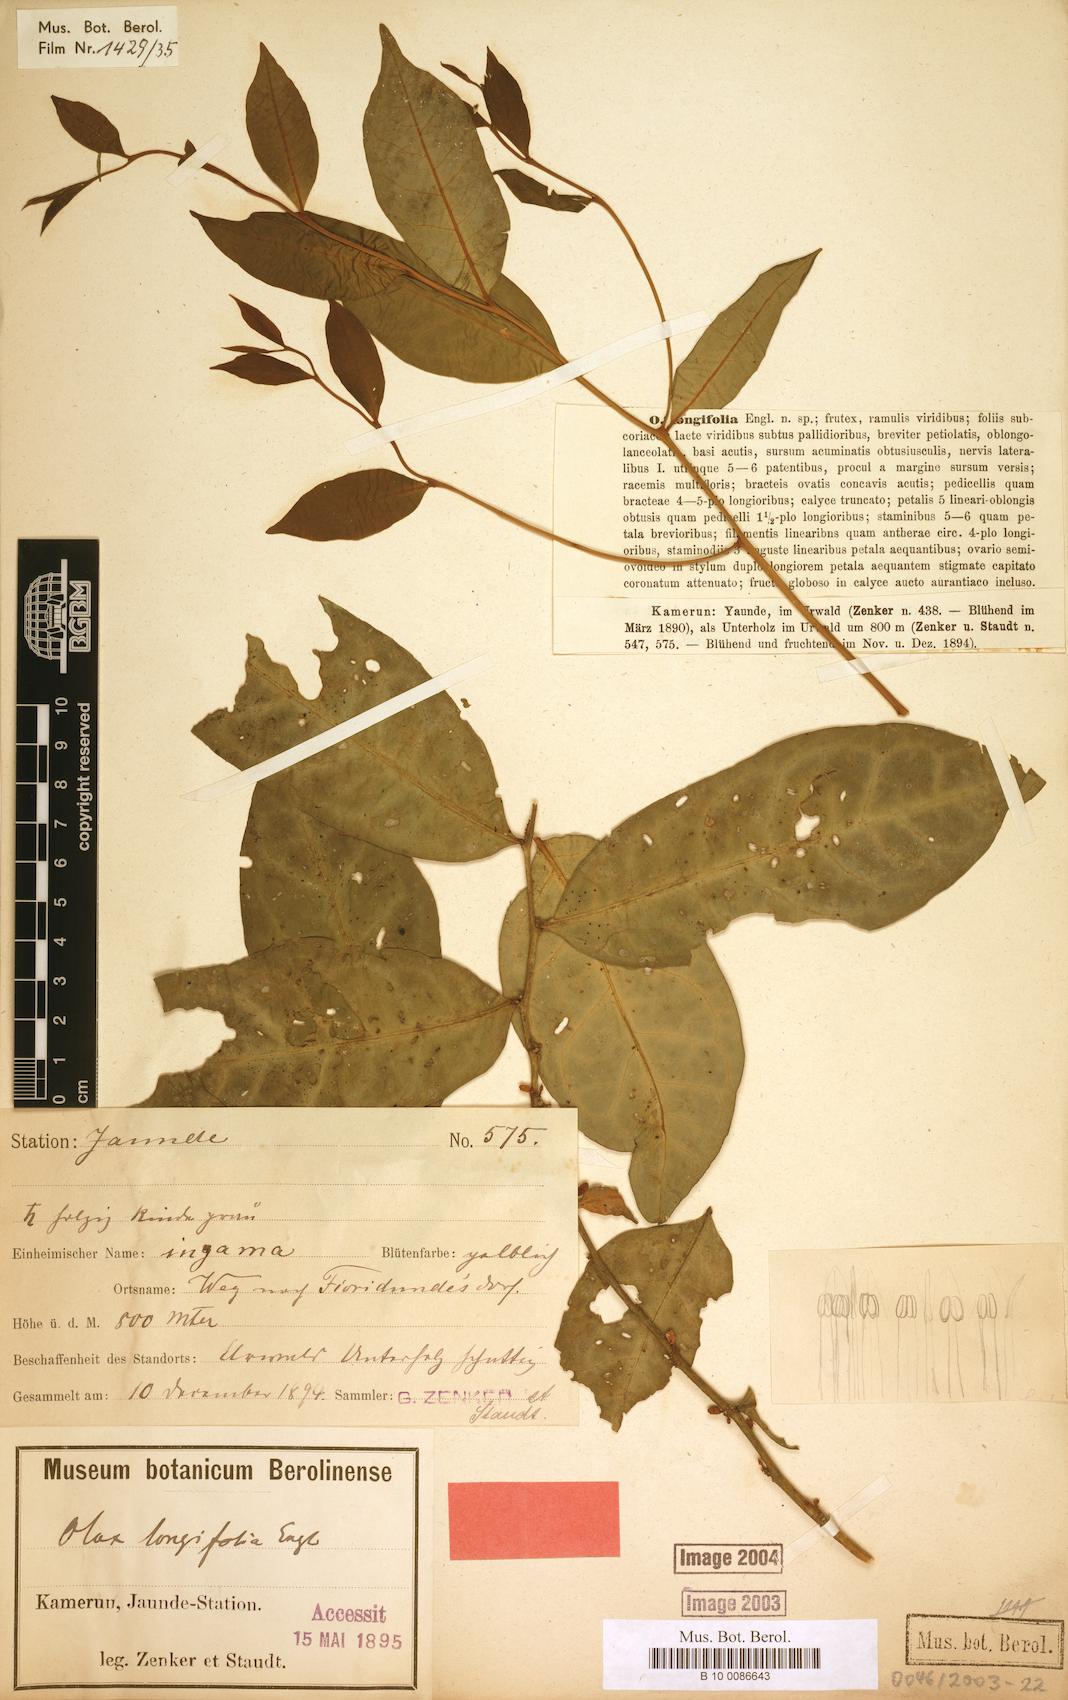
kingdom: Plantae
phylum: Tracheophyta
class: Magnoliopsida
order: Santalales
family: Olacaceae
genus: Olax
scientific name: Olax latifolia
